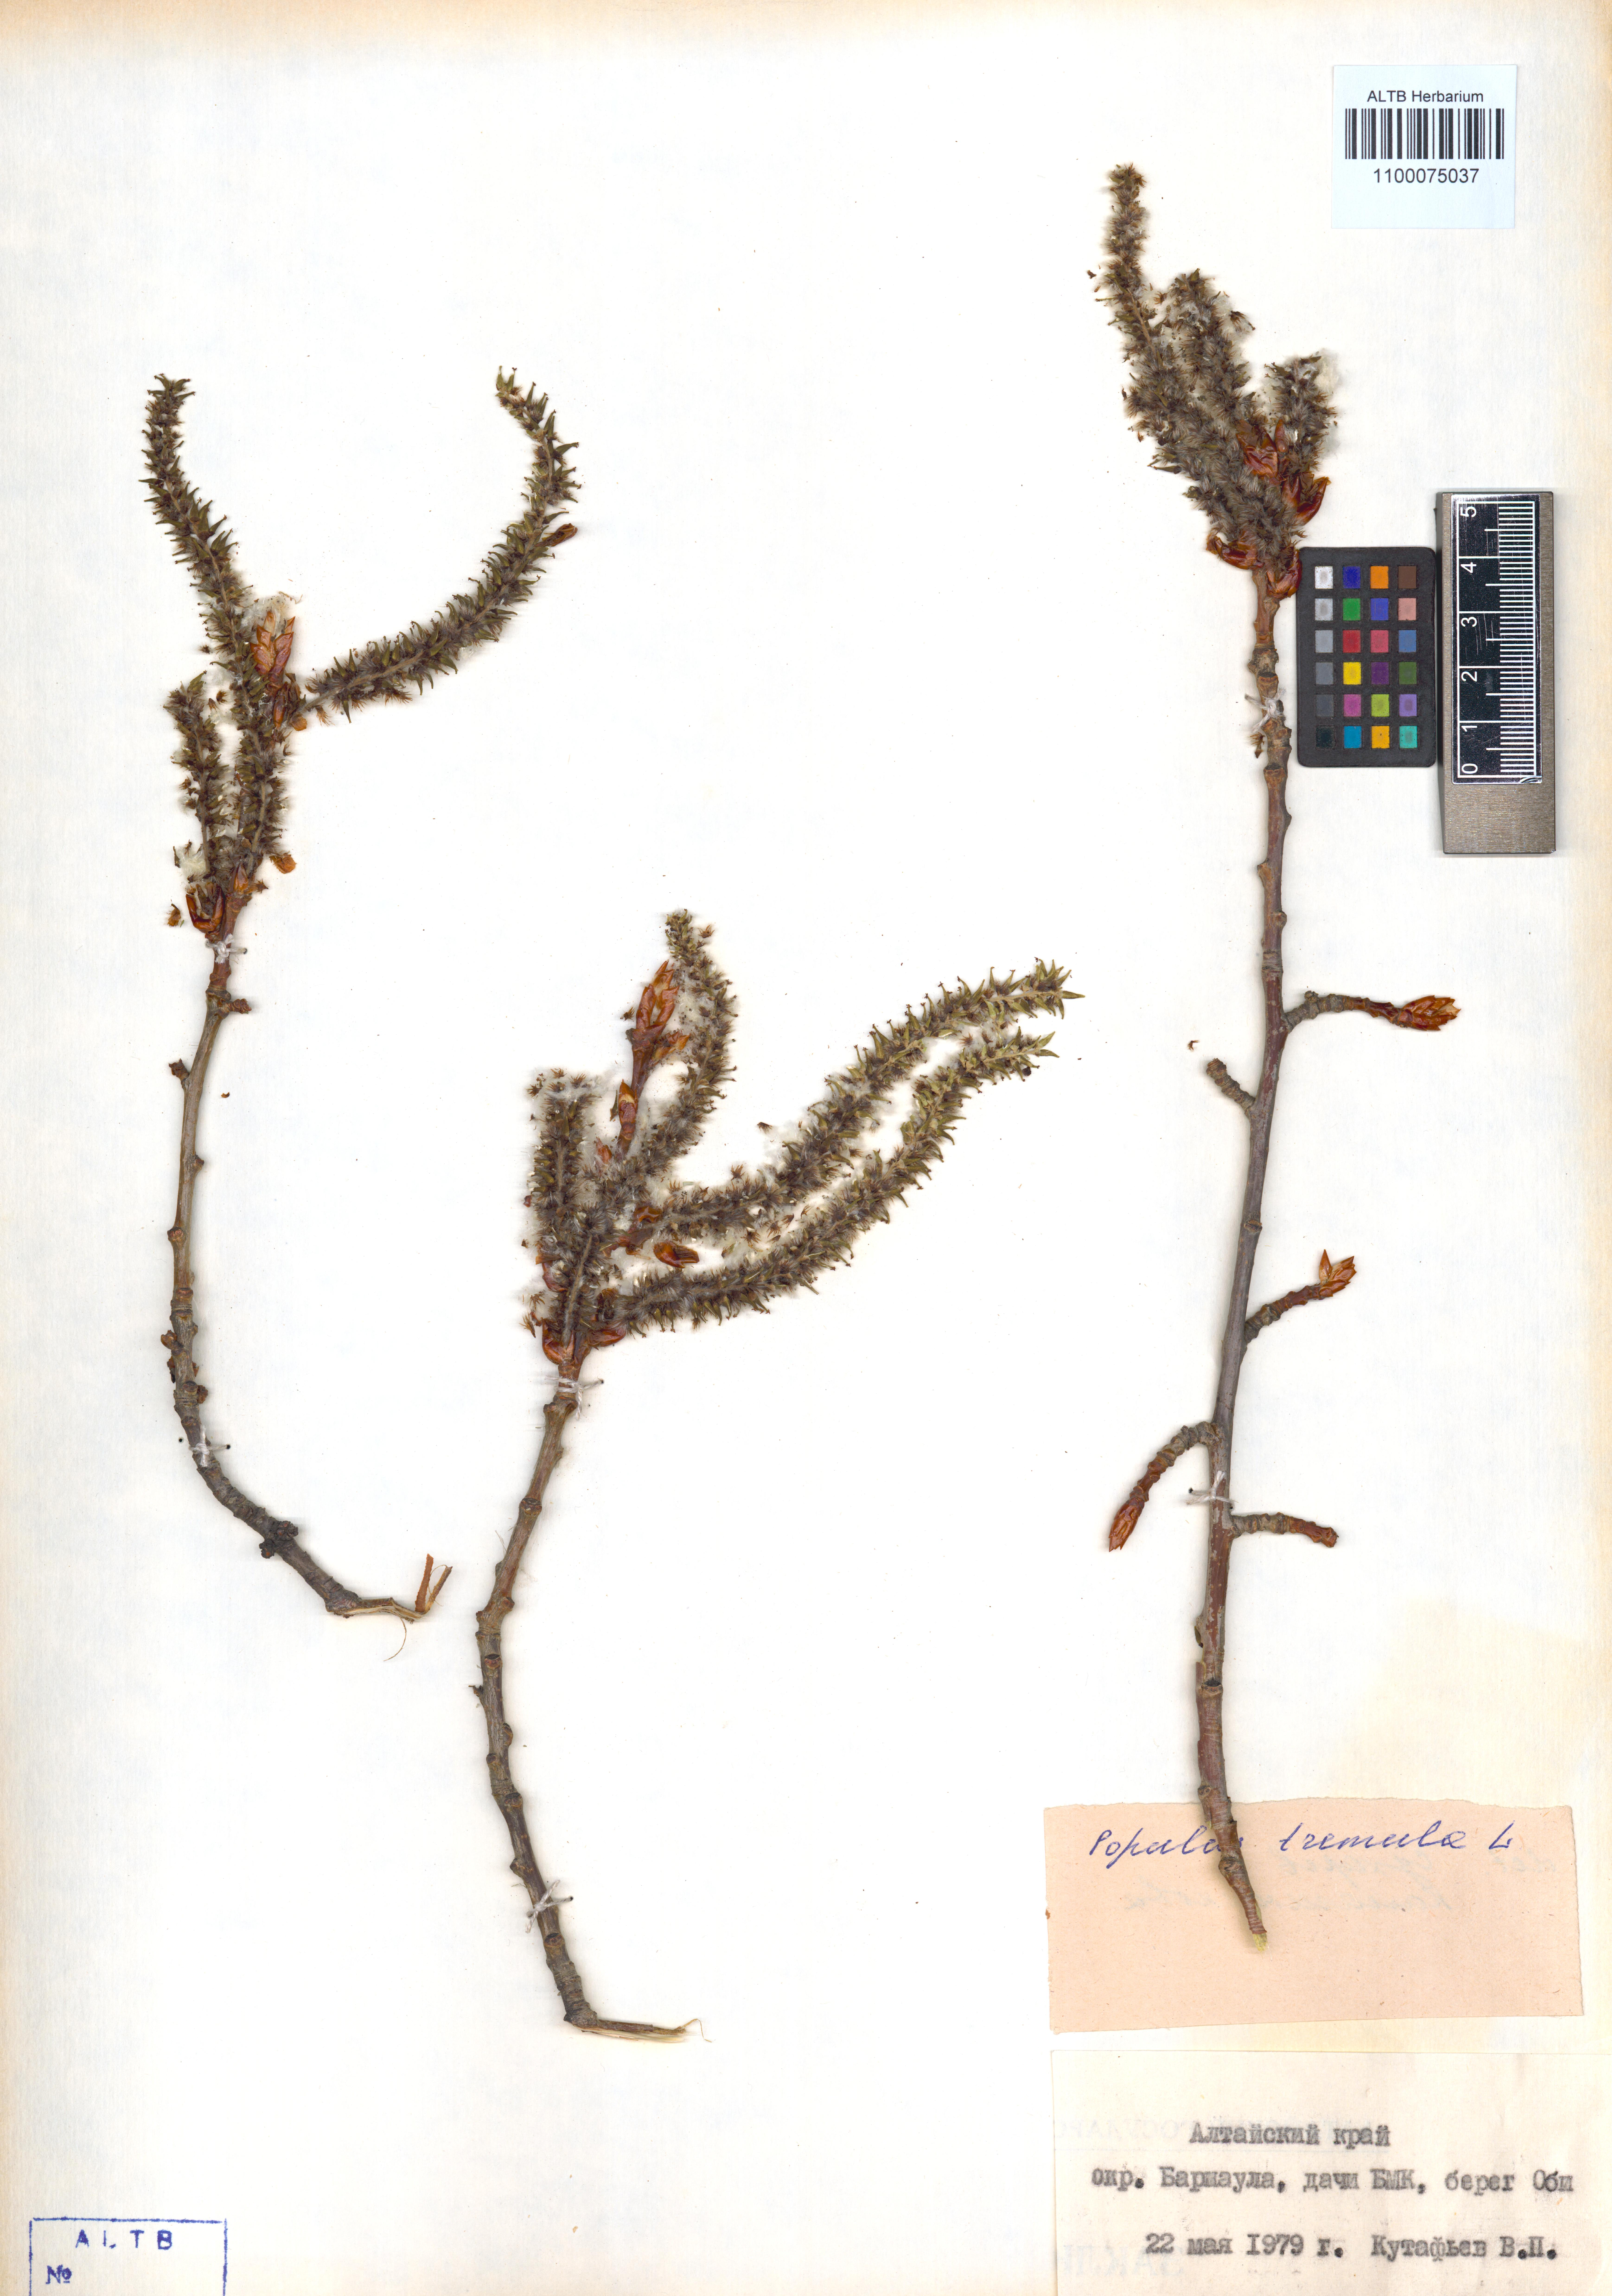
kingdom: Plantae
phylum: Tracheophyta
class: Magnoliopsida
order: Malpighiales
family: Salicaceae
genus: Populus
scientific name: Populus tremula
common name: European aspen
